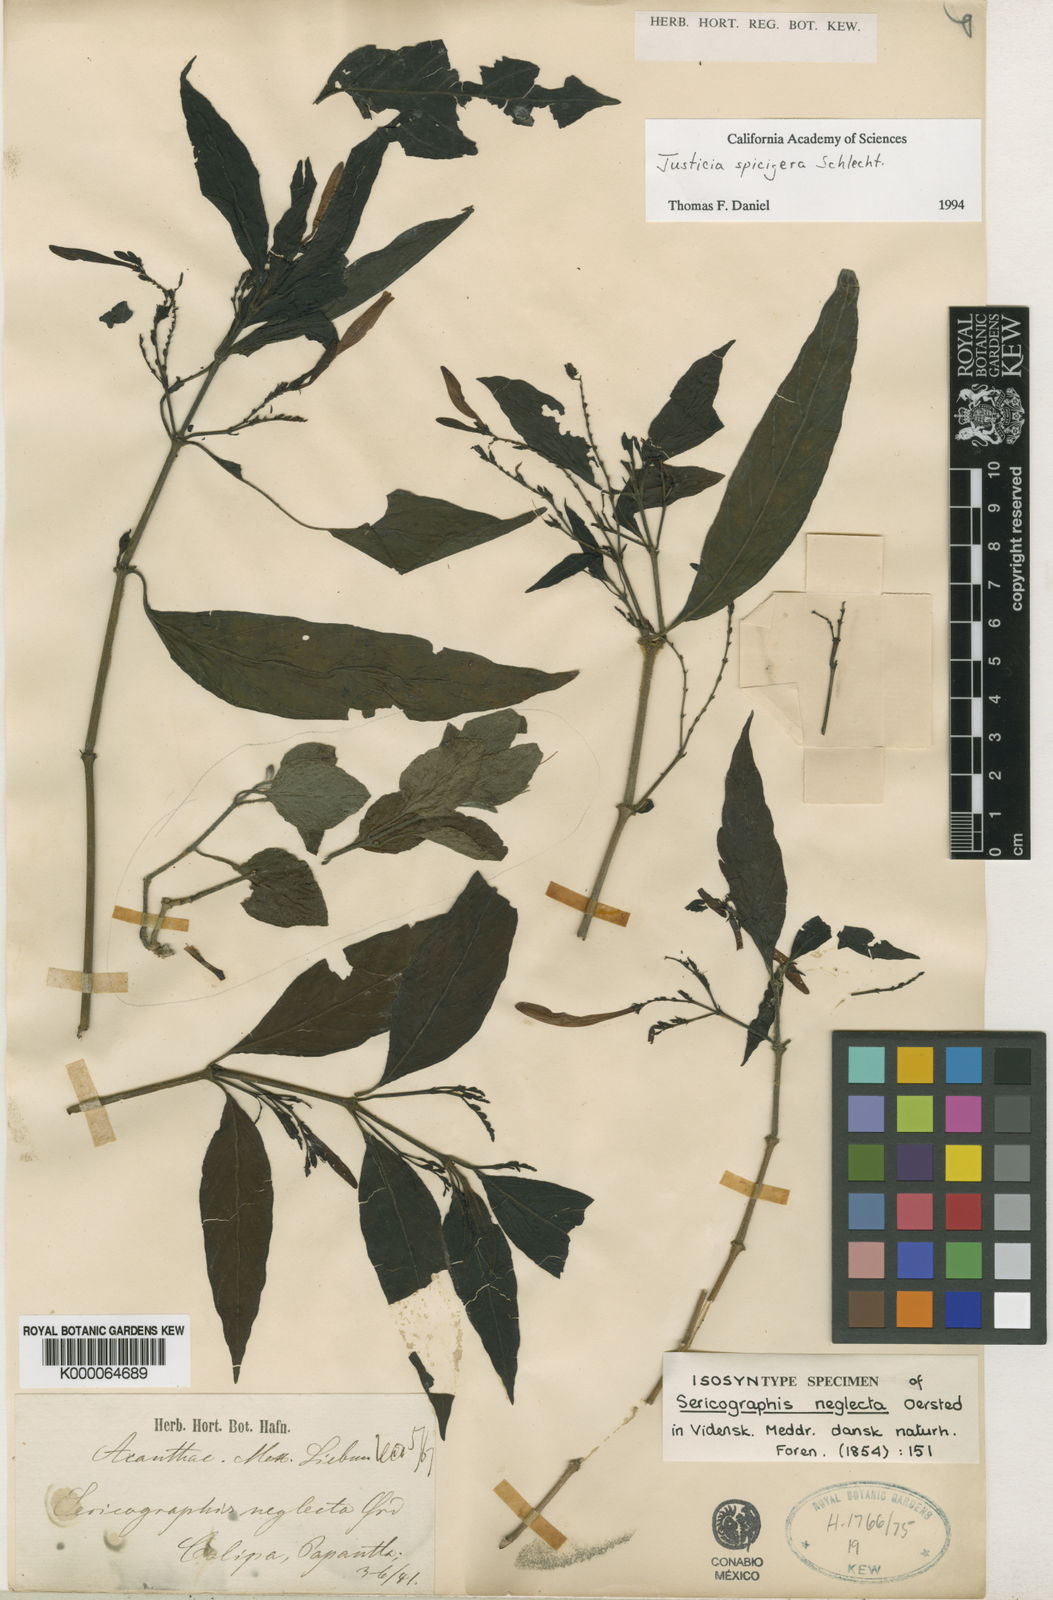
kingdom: Plantae
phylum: Tracheophyta
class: Magnoliopsida
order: Lamiales
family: Acanthaceae
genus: Justicia
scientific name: Justicia spicigera
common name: Mohintli
